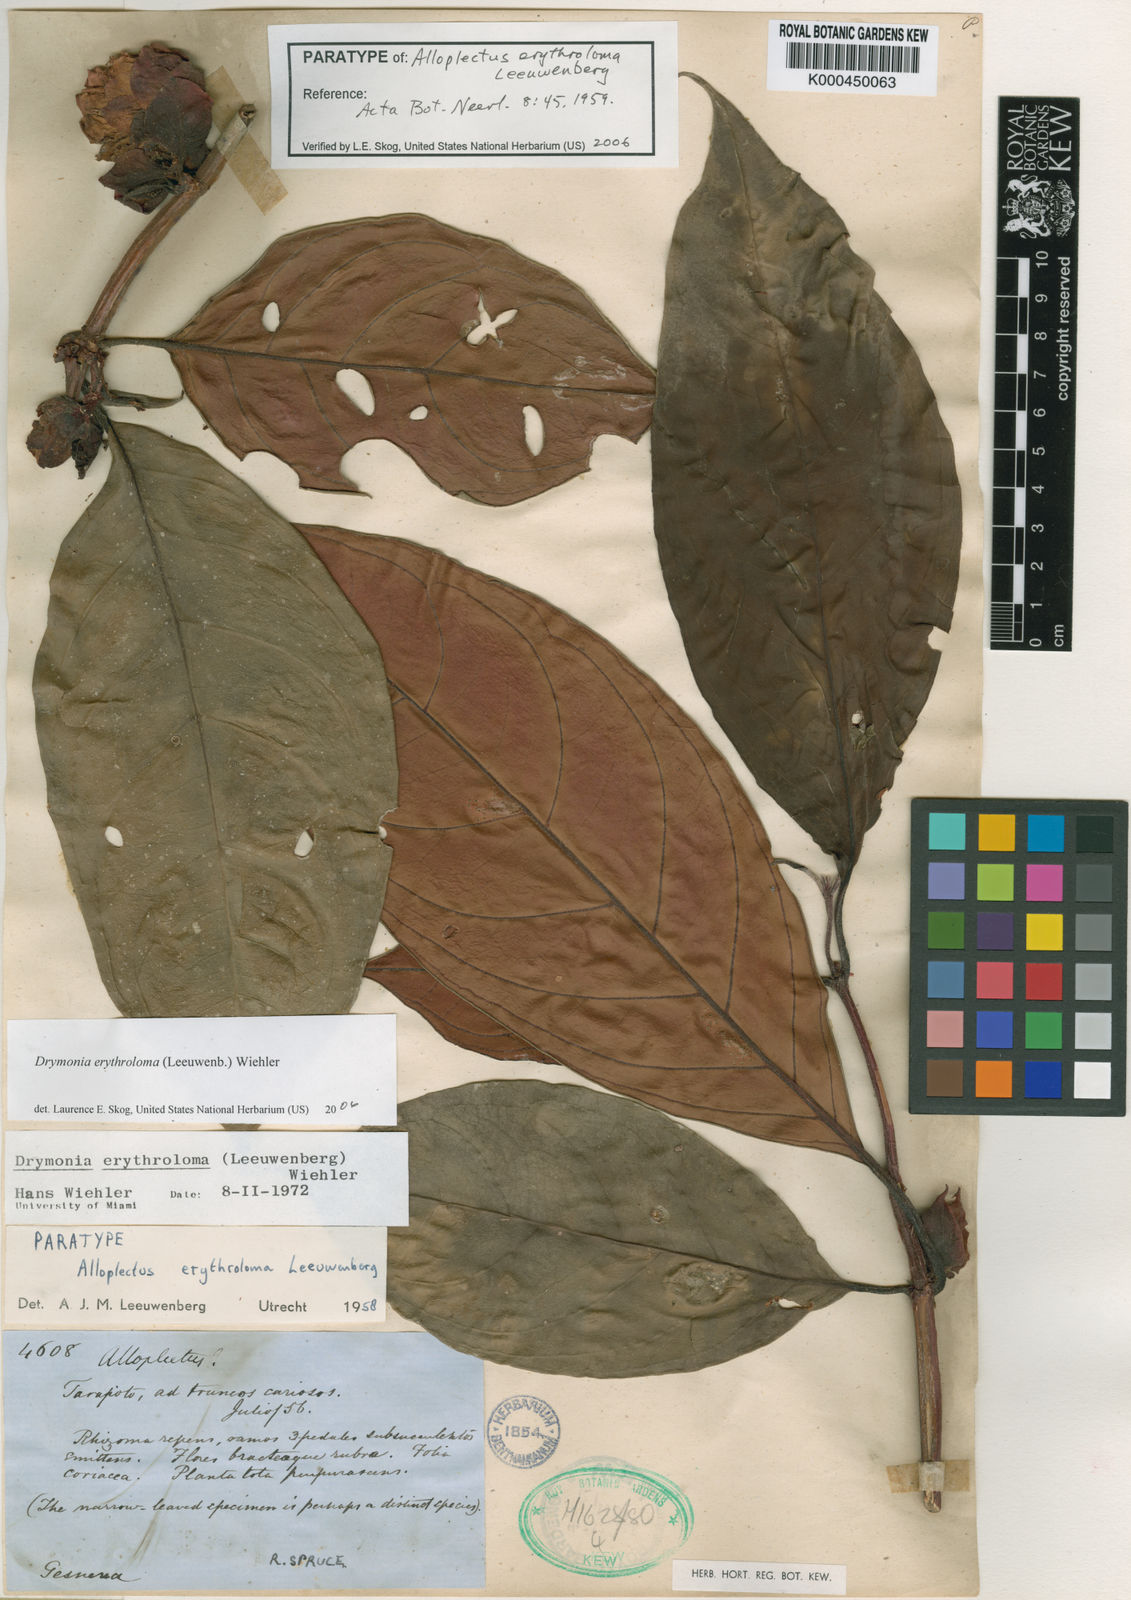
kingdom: Plantae
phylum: Tracheophyta
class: Magnoliopsida
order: Lamiales
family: Gesneriaceae
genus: Drymonia
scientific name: Drymonia erythroloma
